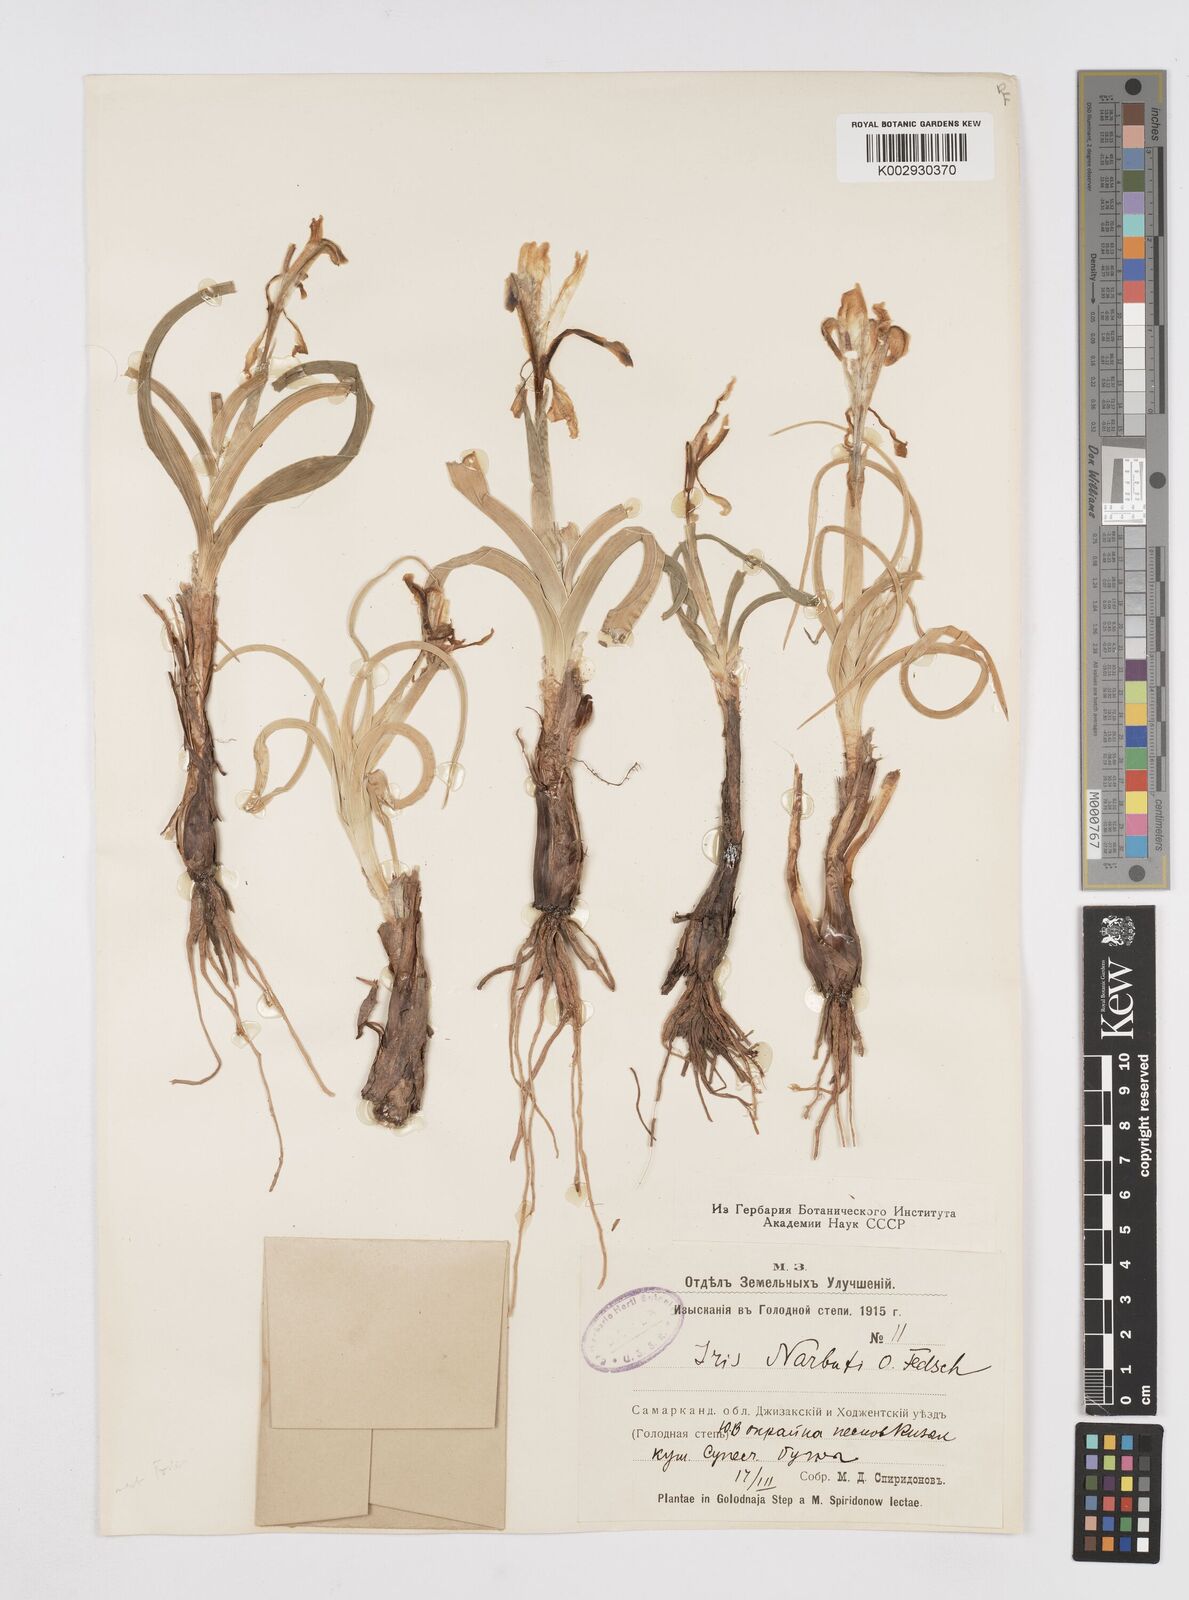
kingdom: Plantae
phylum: Tracheophyta
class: Liliopsida
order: Asparagales
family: Iridaceae
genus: Iris
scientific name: Iris narbutii
